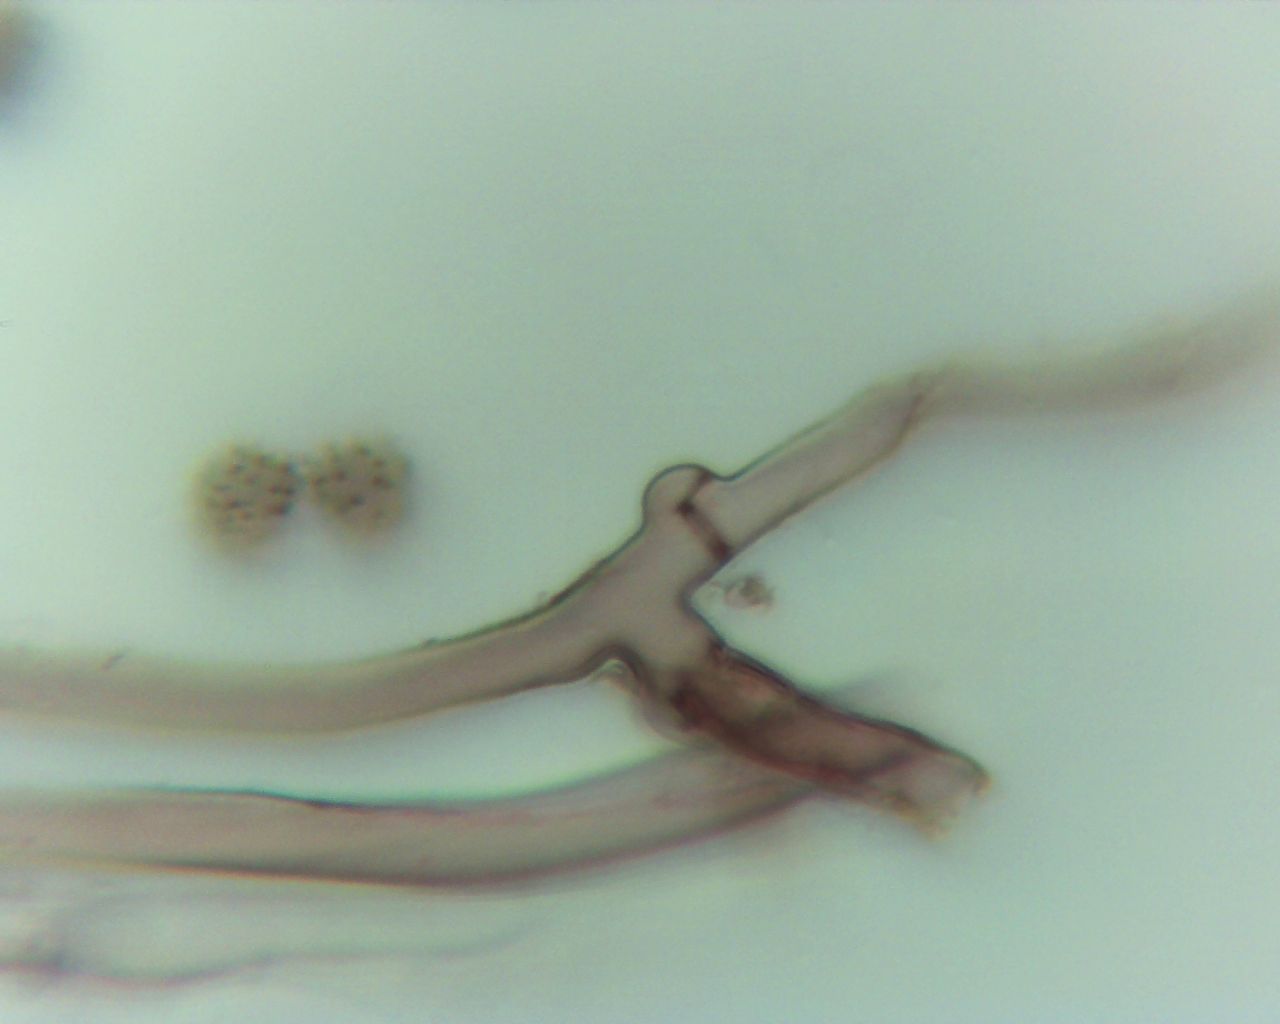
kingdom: Fungi
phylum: Basidiomycota
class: Agaricomycetes
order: Thelephorales
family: Thelephoraceae
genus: Tomentella
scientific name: Tomentella
